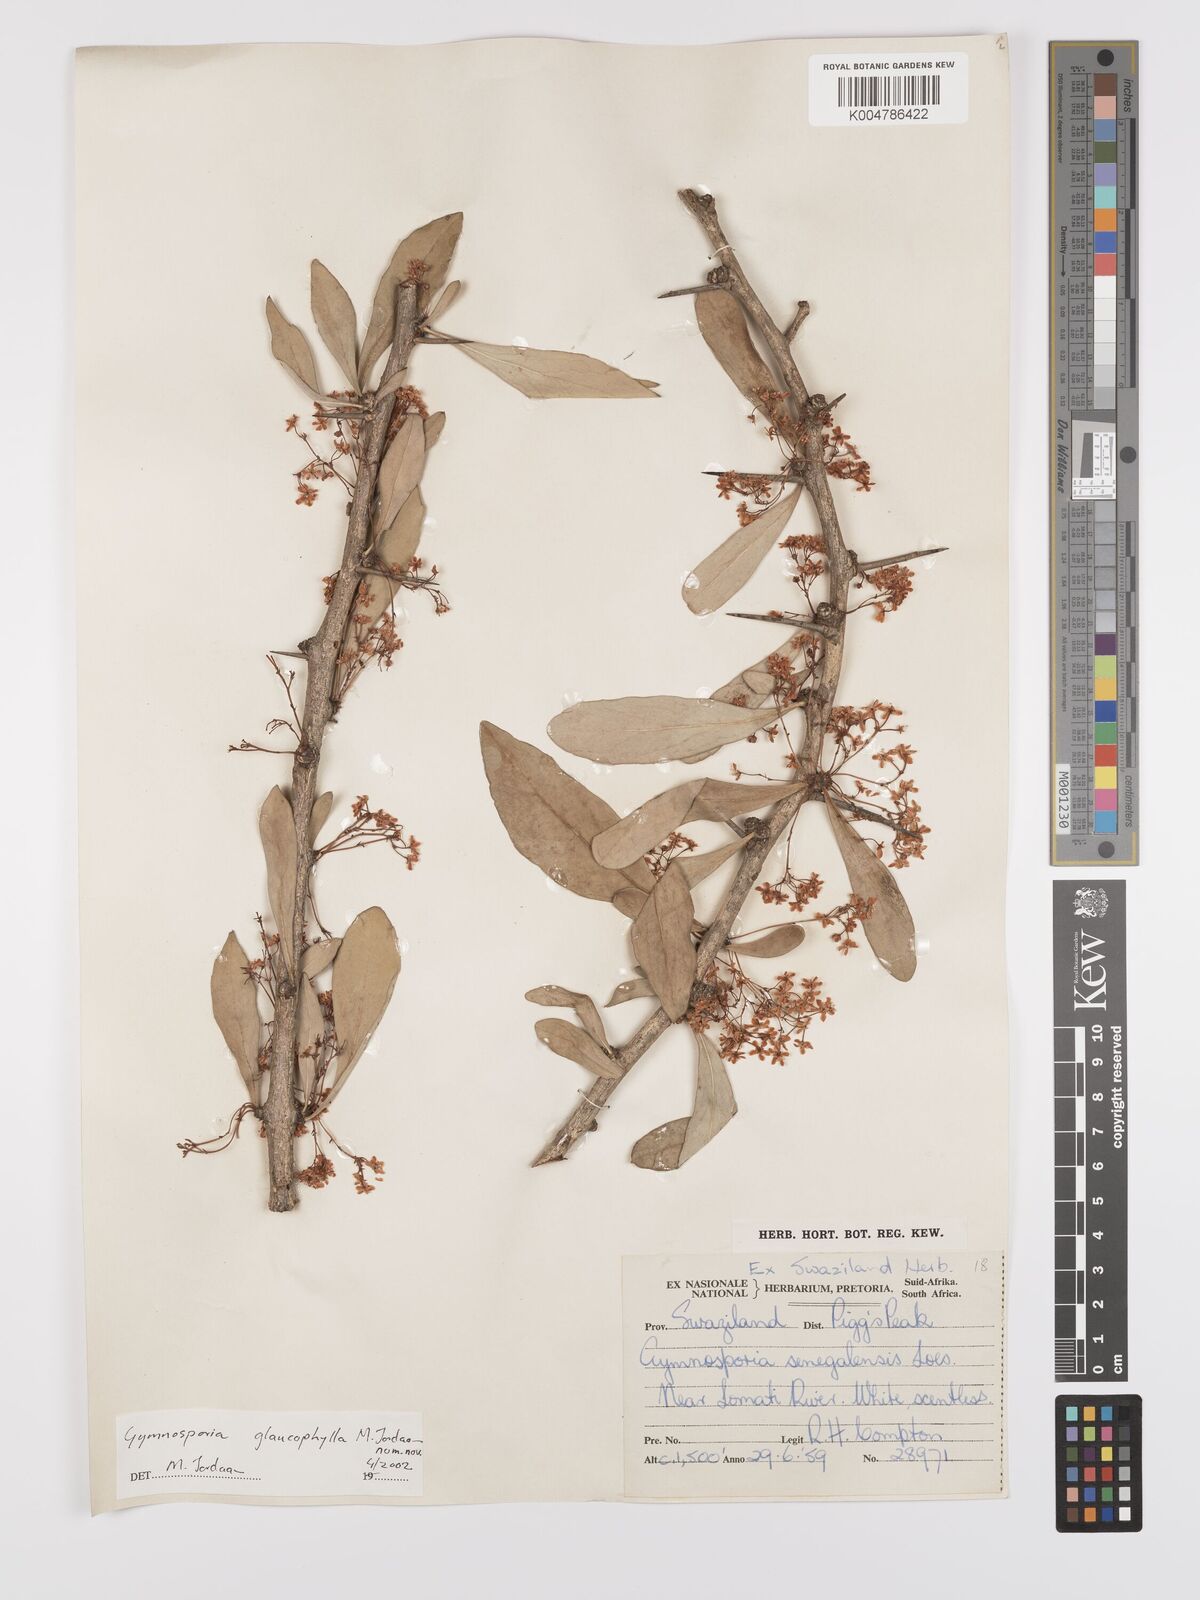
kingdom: Plantae
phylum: Tracheophyta
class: Magnoliopsida
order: Celastrales
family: Celastraceae
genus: Gymnosporia
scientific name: Gymnosporia glaucophylla
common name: Blue spike-thorn
